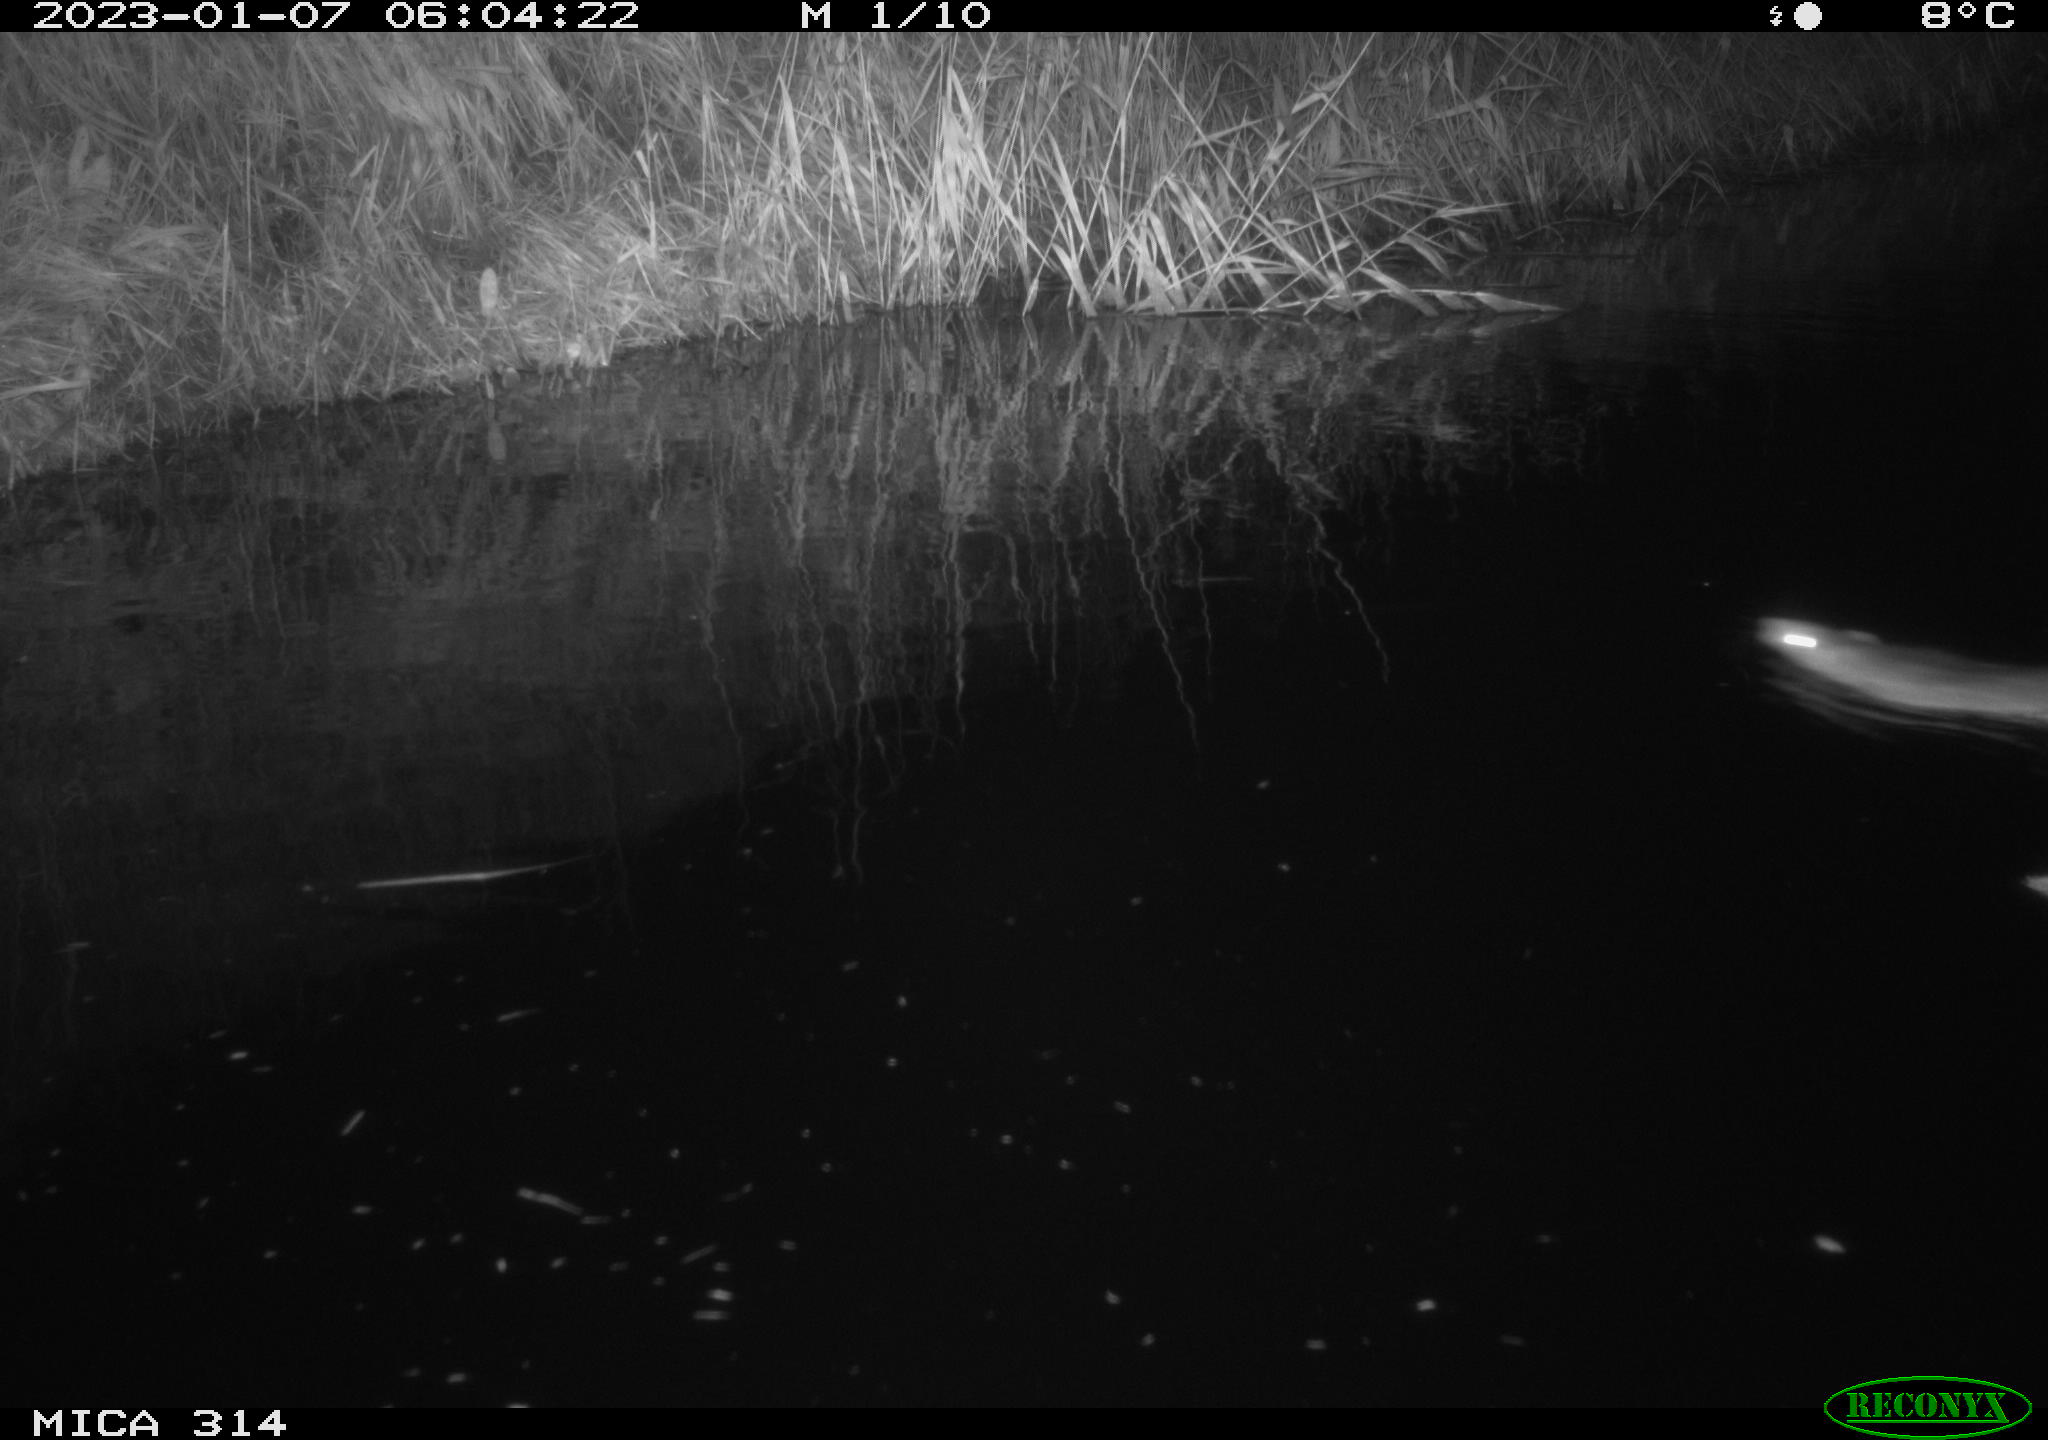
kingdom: Animalia
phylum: Chordata
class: Mammalia
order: Rodentia
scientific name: Rodentia
